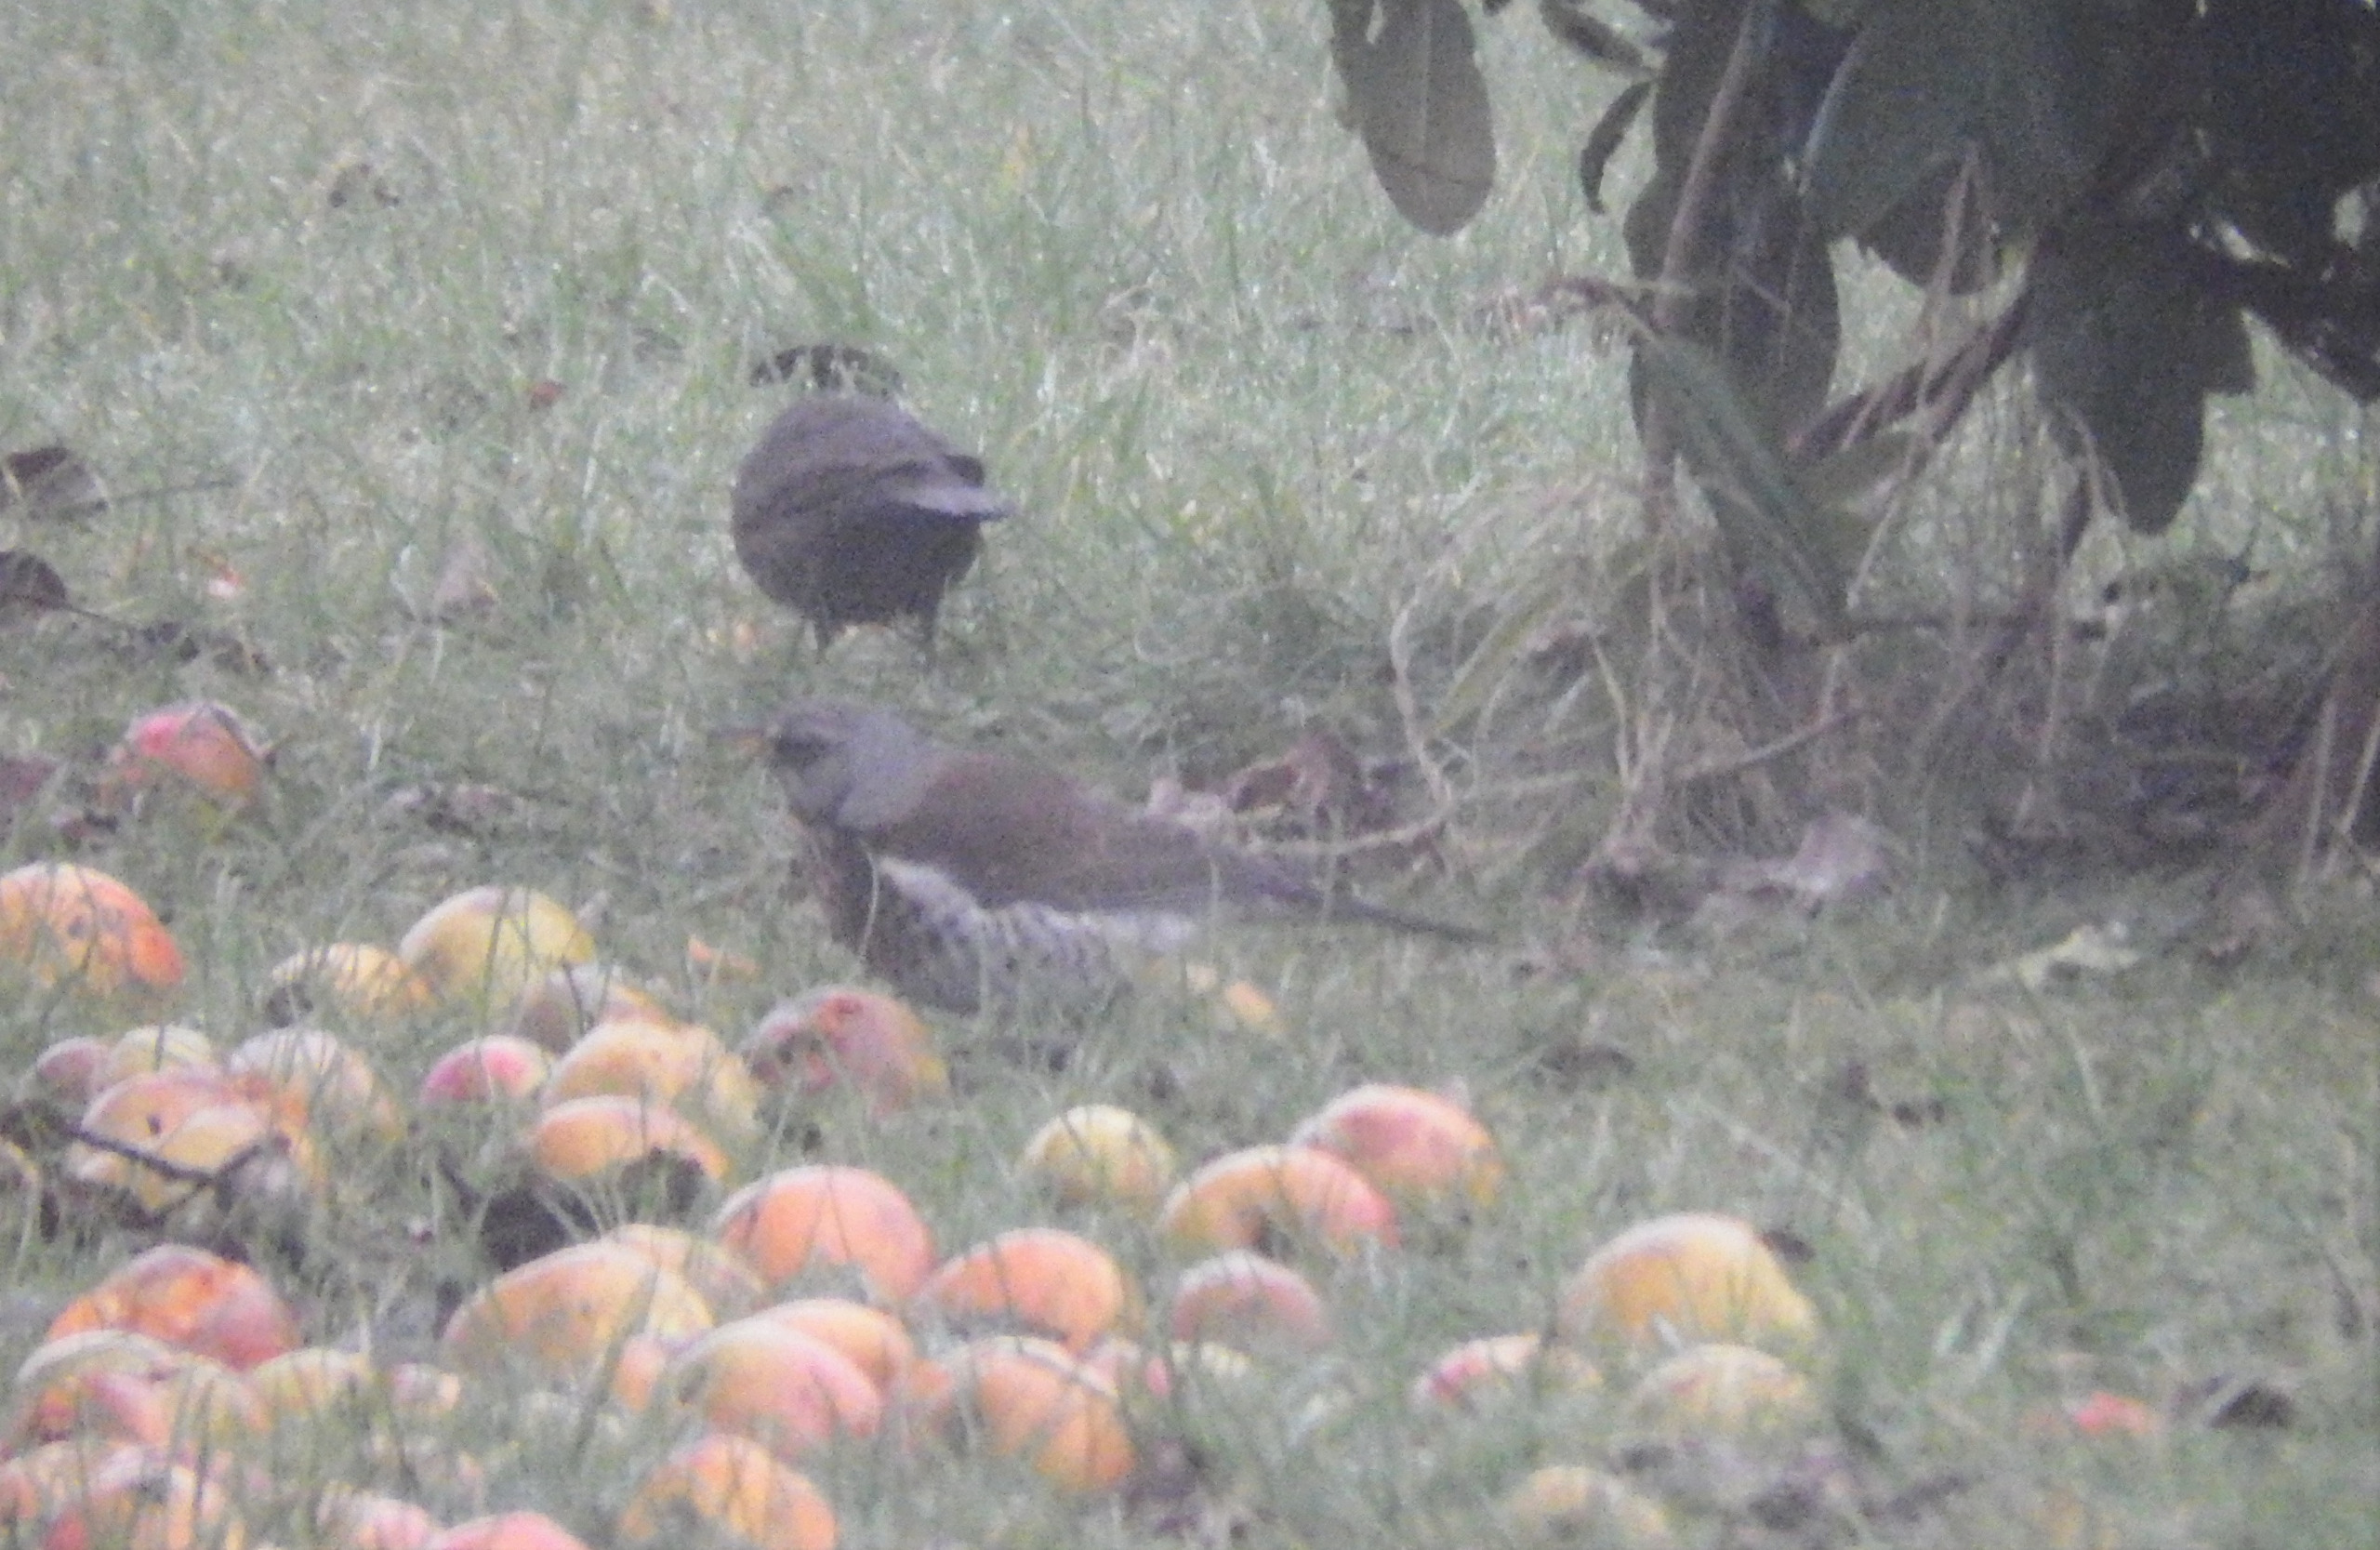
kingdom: Animalia
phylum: Chordata
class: Aves
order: Passeriformes
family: Turdidae
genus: Turdus
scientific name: Turdus pilaris
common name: Sjagger
